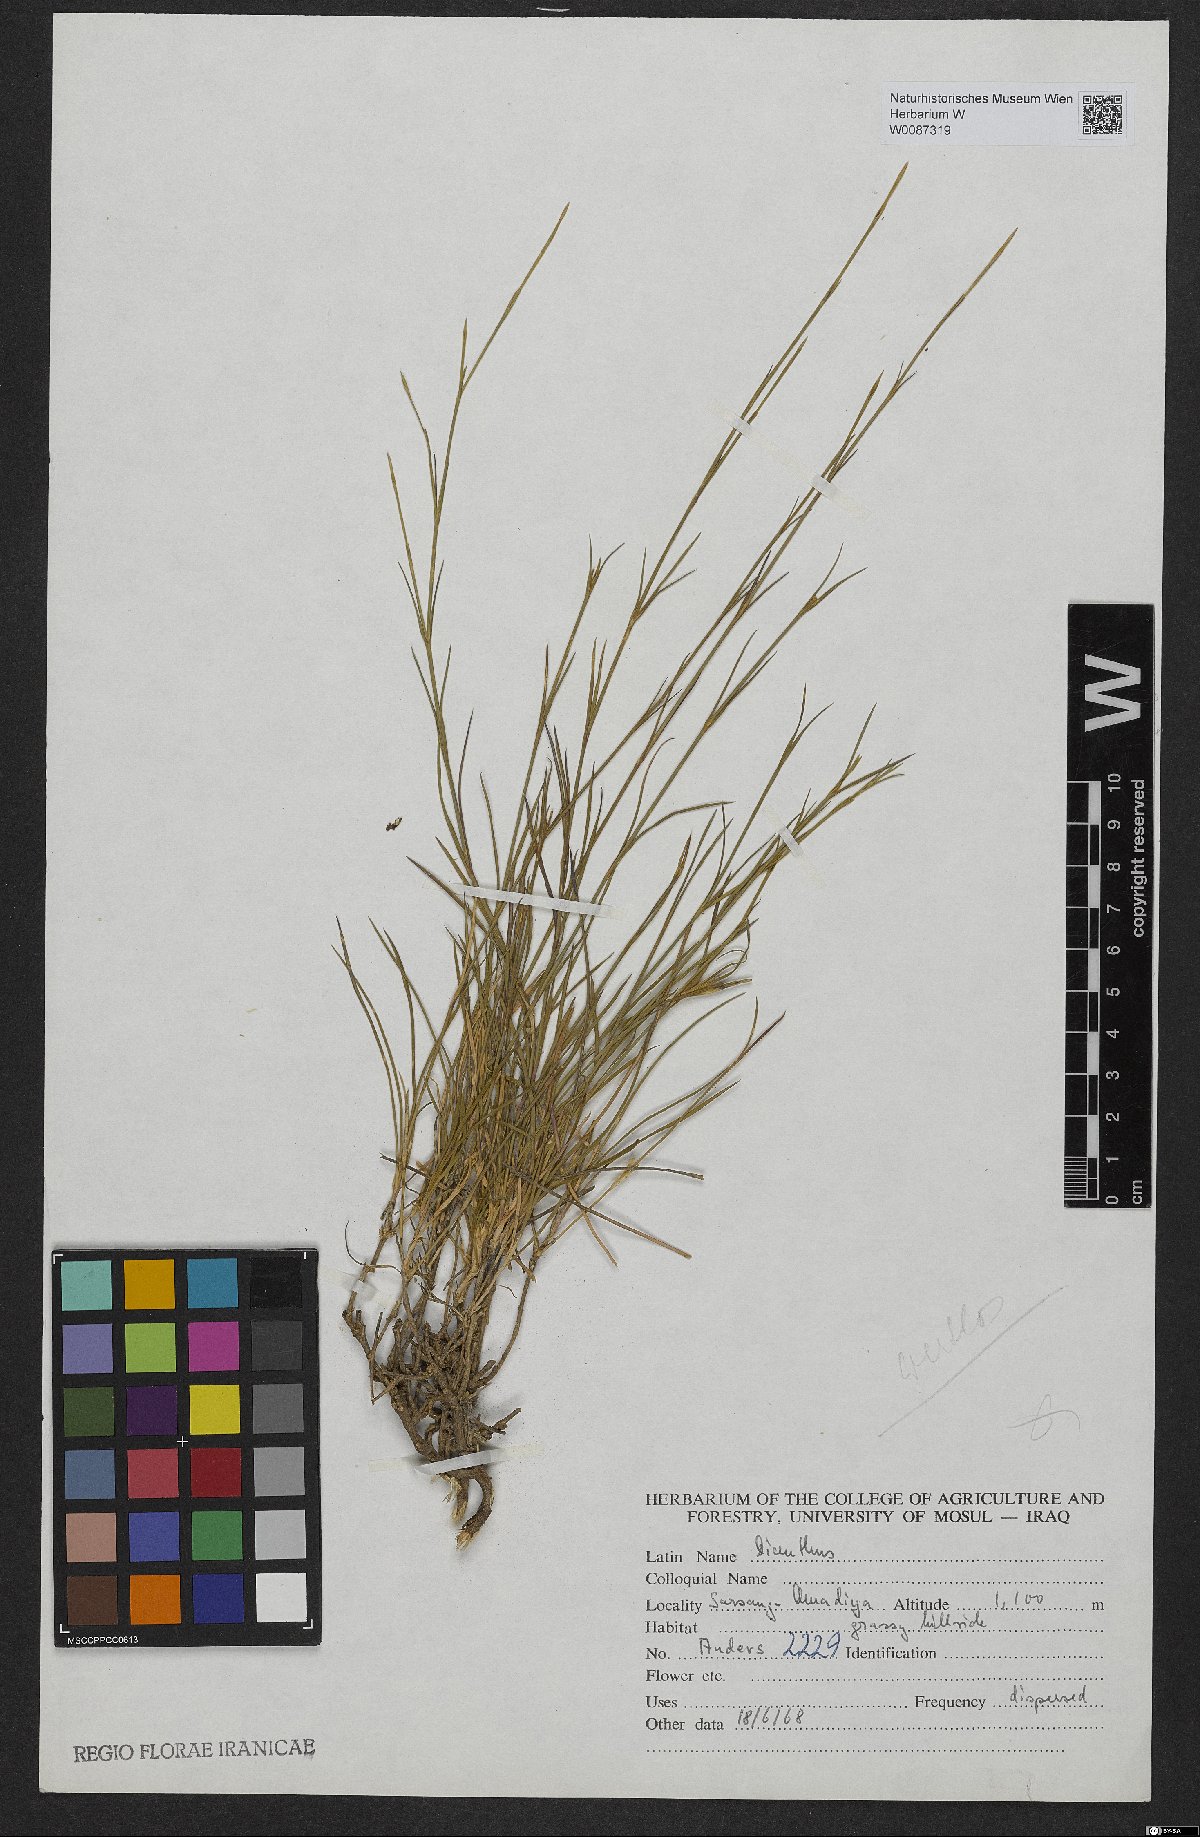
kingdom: Plantae
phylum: Tracheophyta
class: Magnoliopsida
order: Caryophyllales
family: Caryophyllaceae
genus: Dianthus
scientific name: Dianthus
